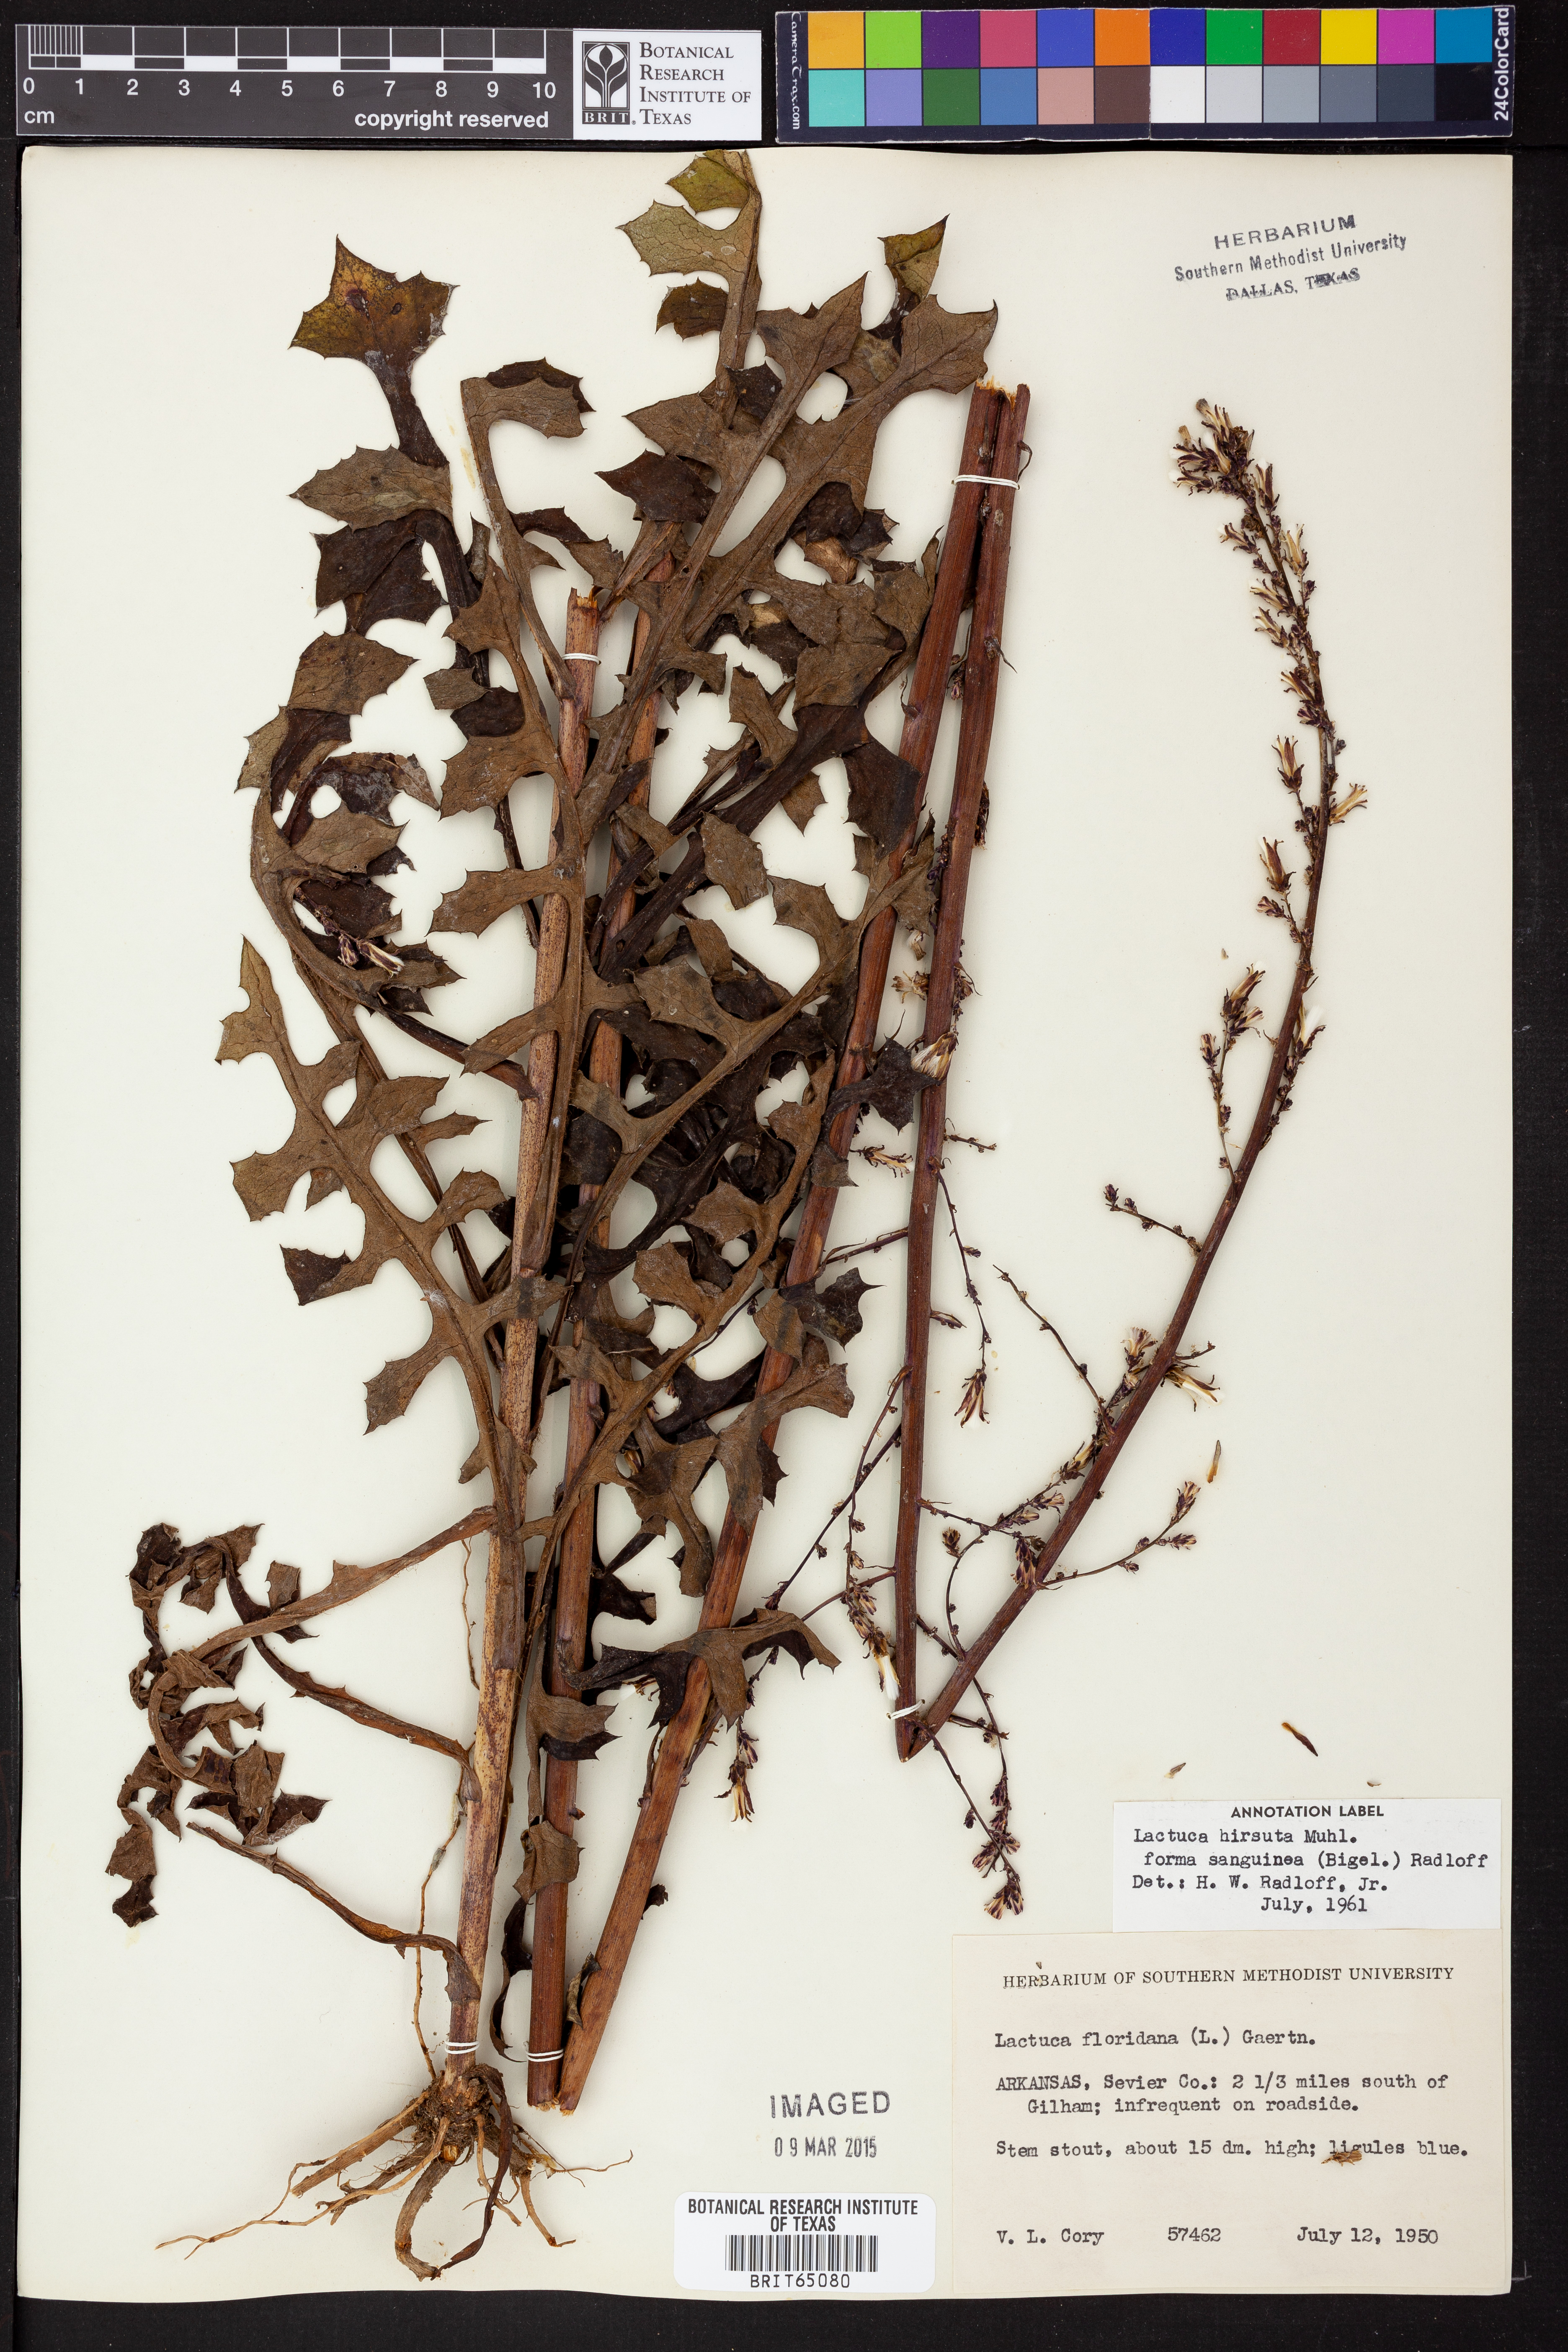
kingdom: Plantae
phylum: Tracheophyta
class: Magnoliopsida
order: Asterales
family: Asteraceae
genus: Lactuca
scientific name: Lactuca hirsuta
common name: Hairy lettuce
